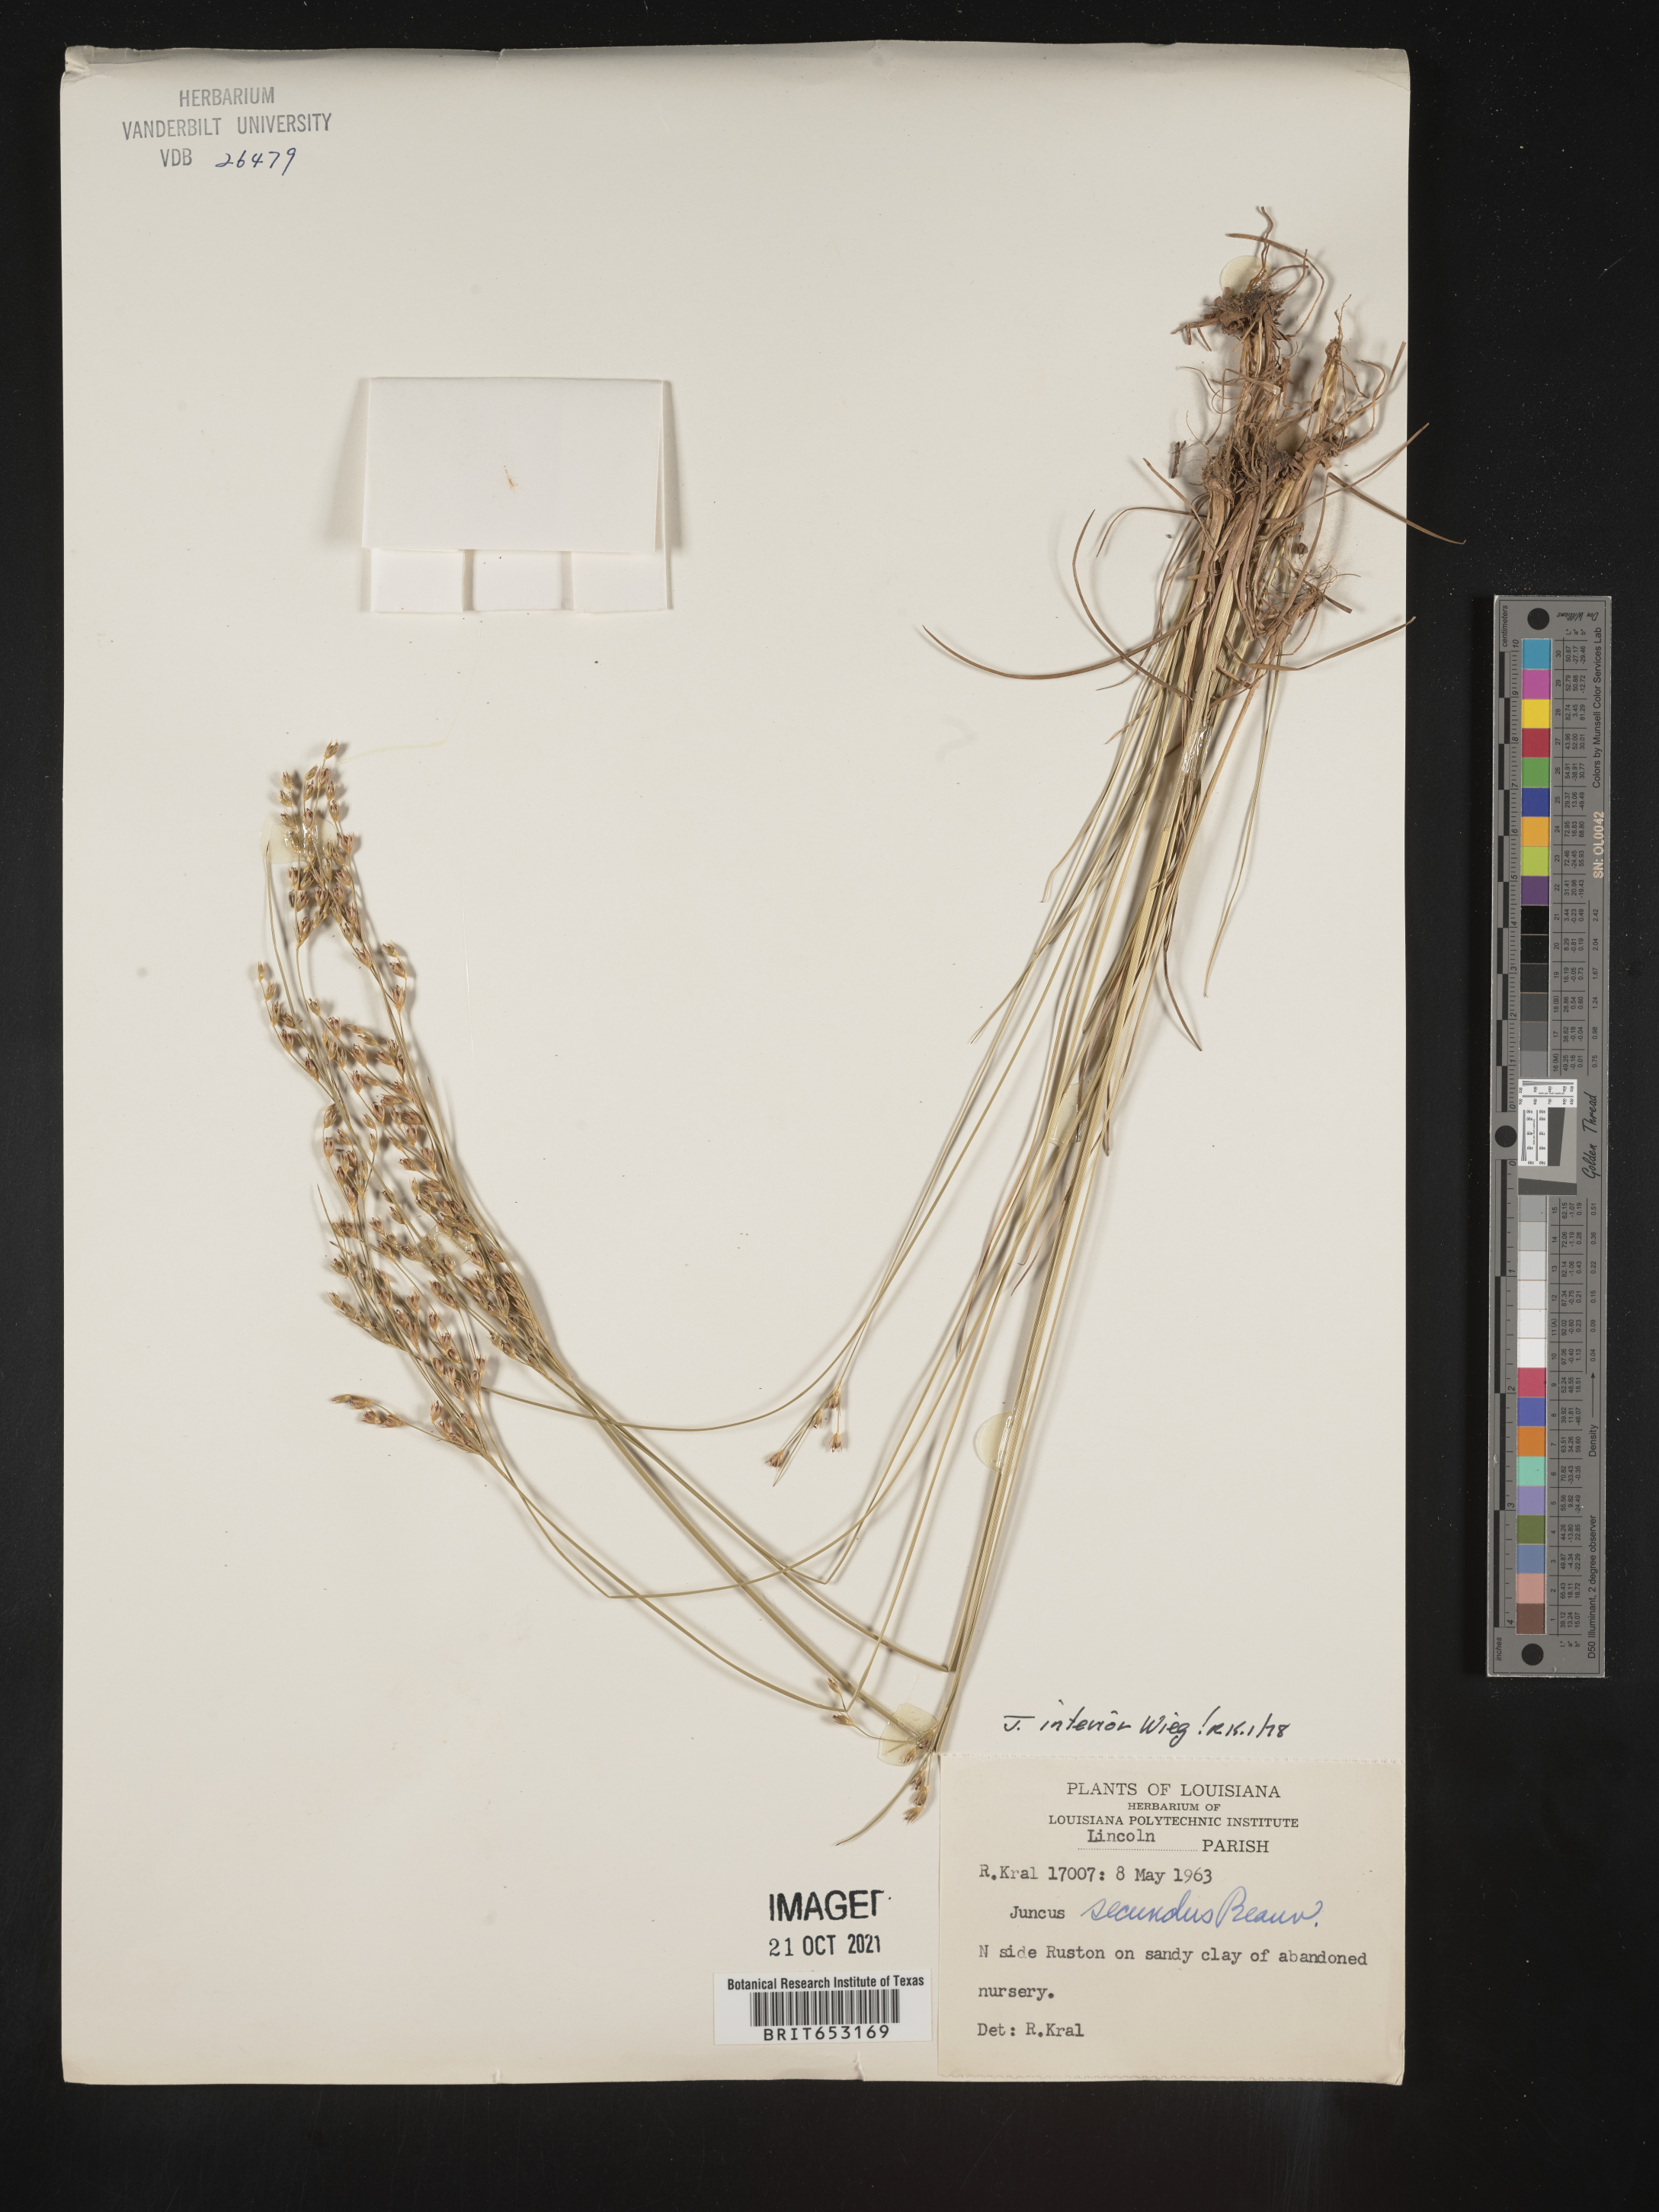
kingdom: Plantae
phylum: Tracheophyta
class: Liliopsida
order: Poales
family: Juncaceae
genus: Juncus
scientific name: Juncus interior
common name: Interior rush
